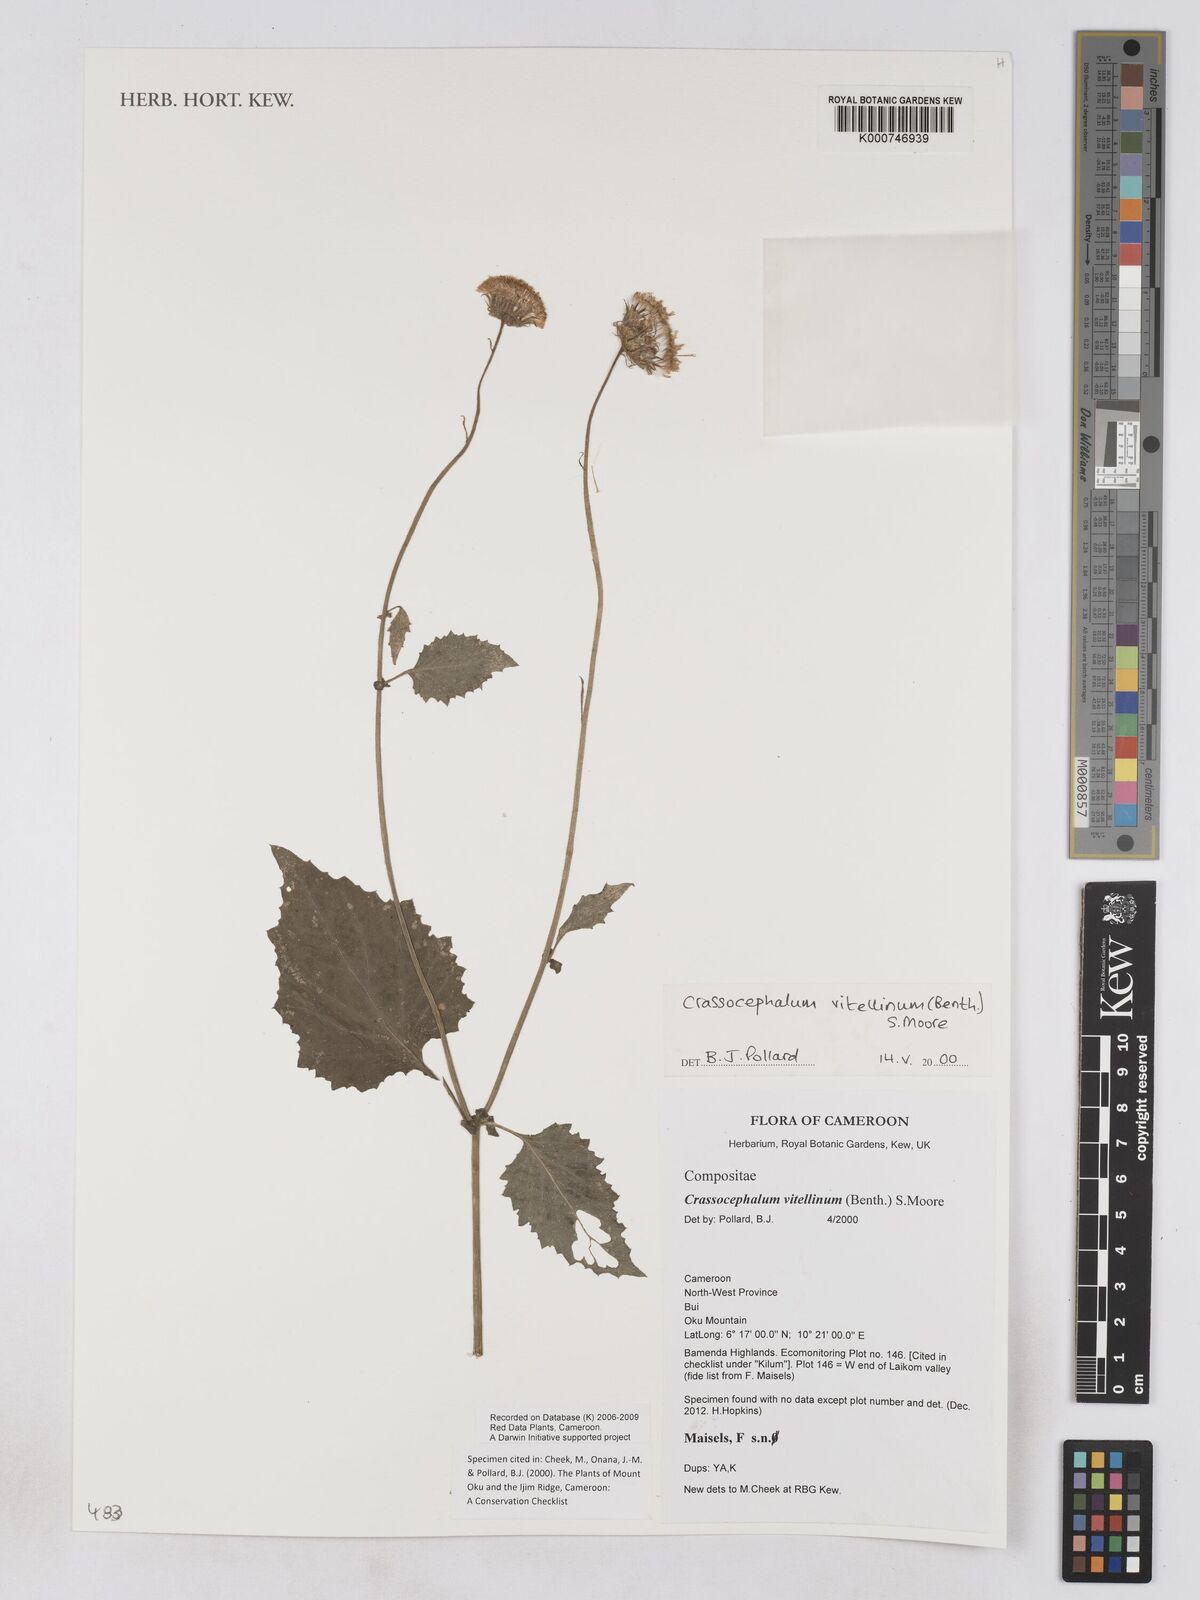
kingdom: Plantae
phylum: Tracheophyta
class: Magnoliopsida
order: Asterales
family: Asteraceae
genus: Crassocephalum
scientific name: Crassocephalum vitellinum
